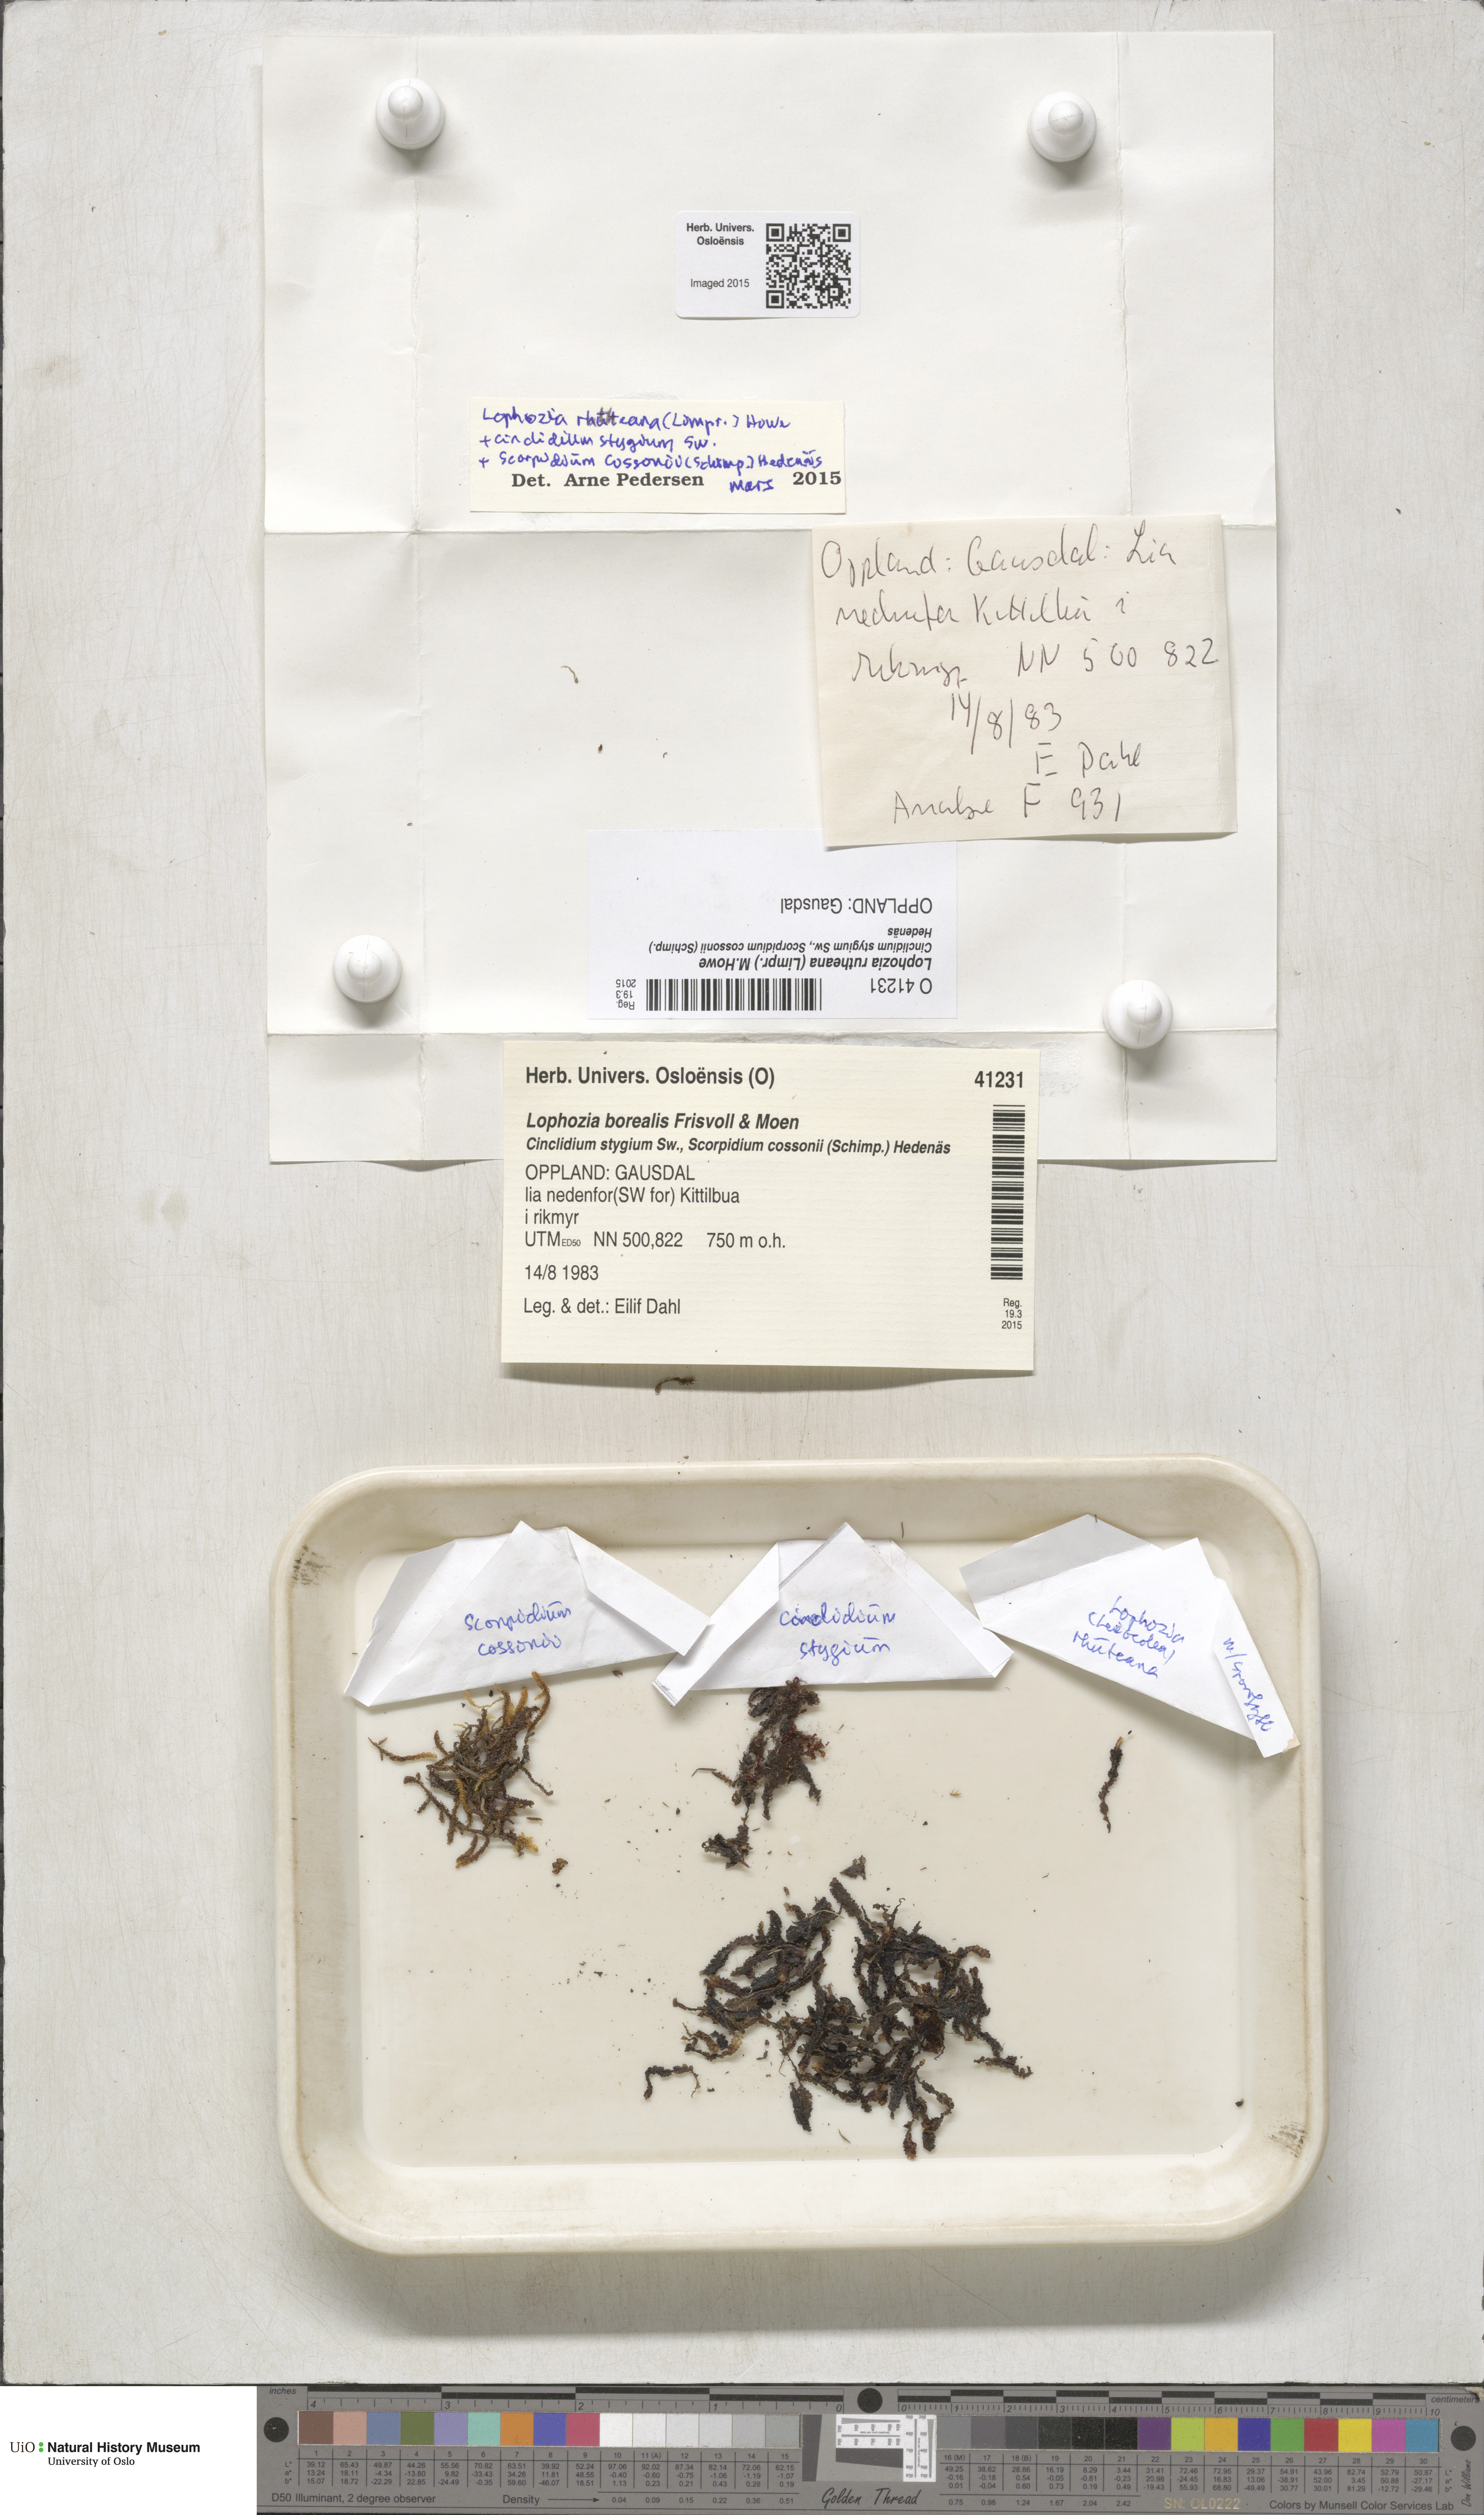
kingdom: Plantae
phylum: Marchantiophyta
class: Jungermanniopsida
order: Jungermanniales
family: Jungermanniaceae
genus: Mesoptychia
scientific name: Mesoptychia rutheana
